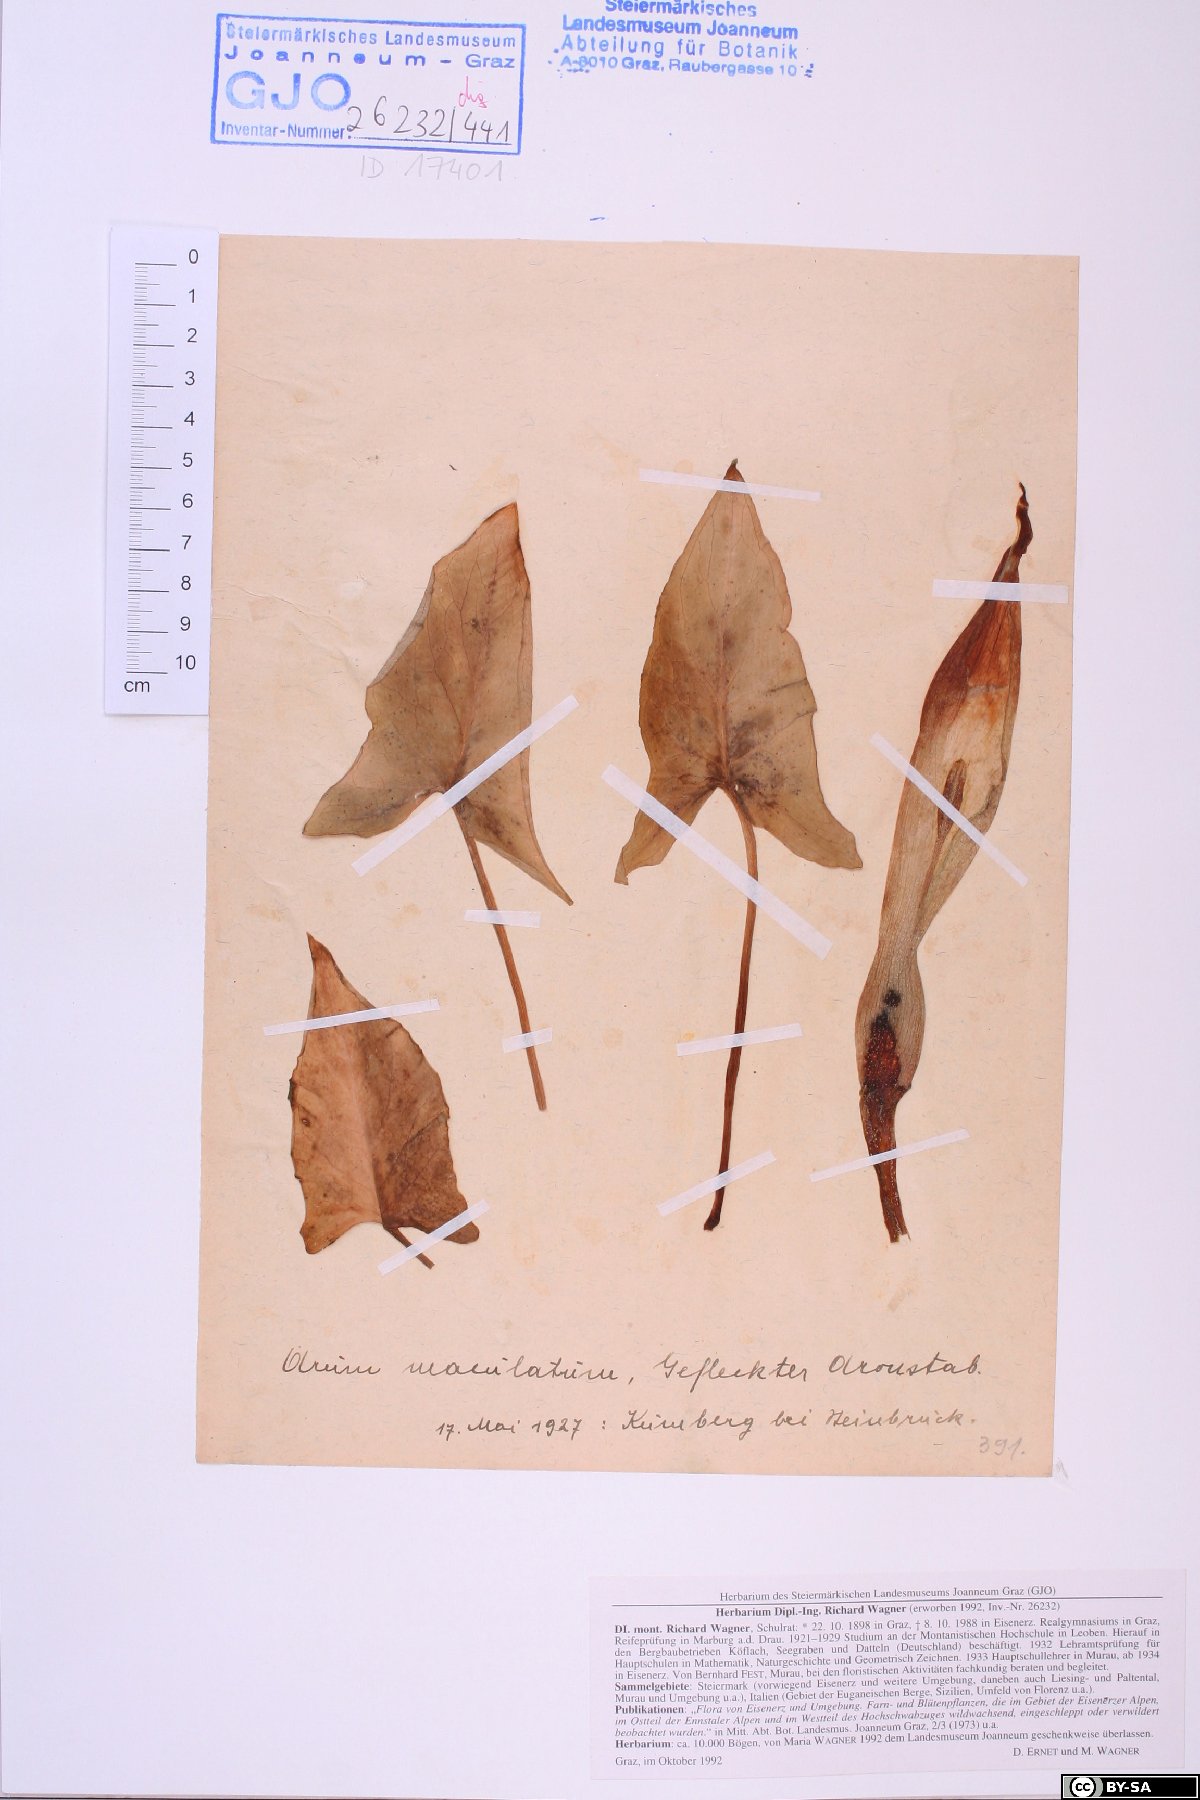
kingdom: Plantae
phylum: Tracheophyta
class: Liliopsida
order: Alismatales
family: Araceae
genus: Arum
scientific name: Arum maculatum
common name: Lords-and-ladies
